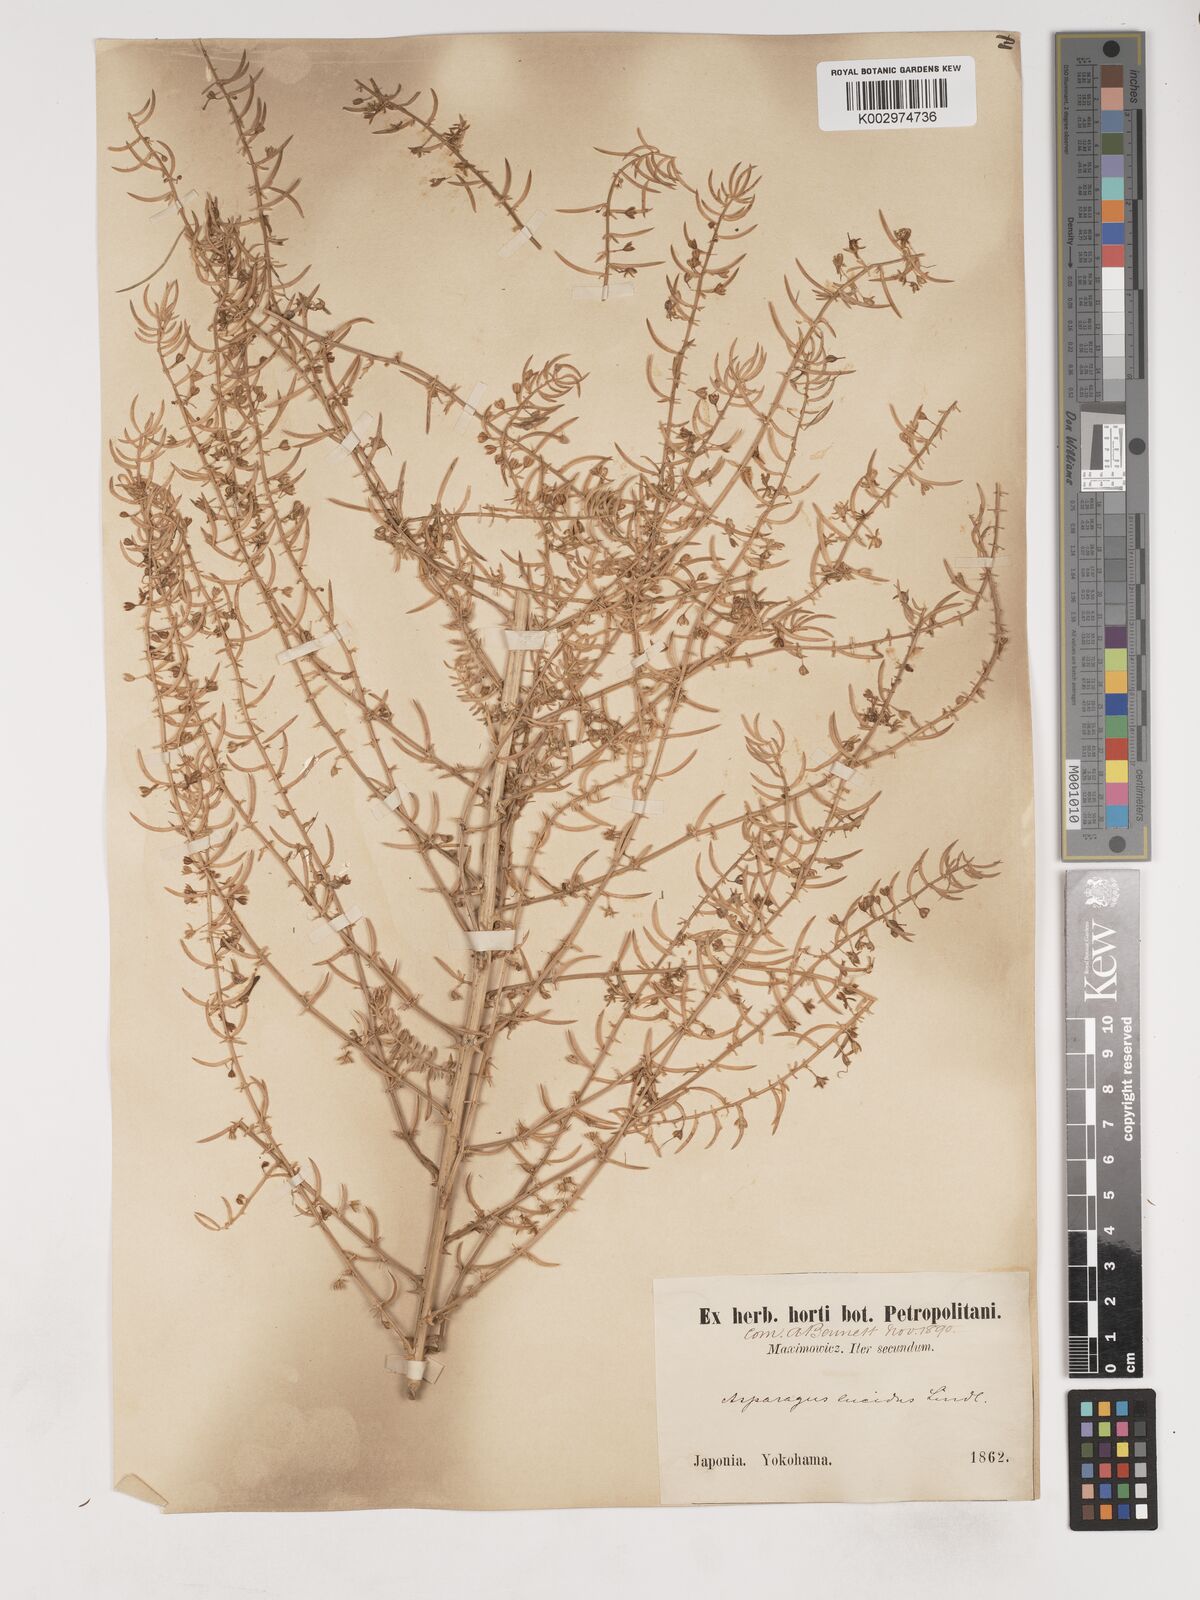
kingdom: Plantae
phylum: Tracheophyta
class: Liliopsida
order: Asparagales
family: Asparagaceae
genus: Asparagus
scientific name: Asparagus cochinchinensis
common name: Chinese asparagus
